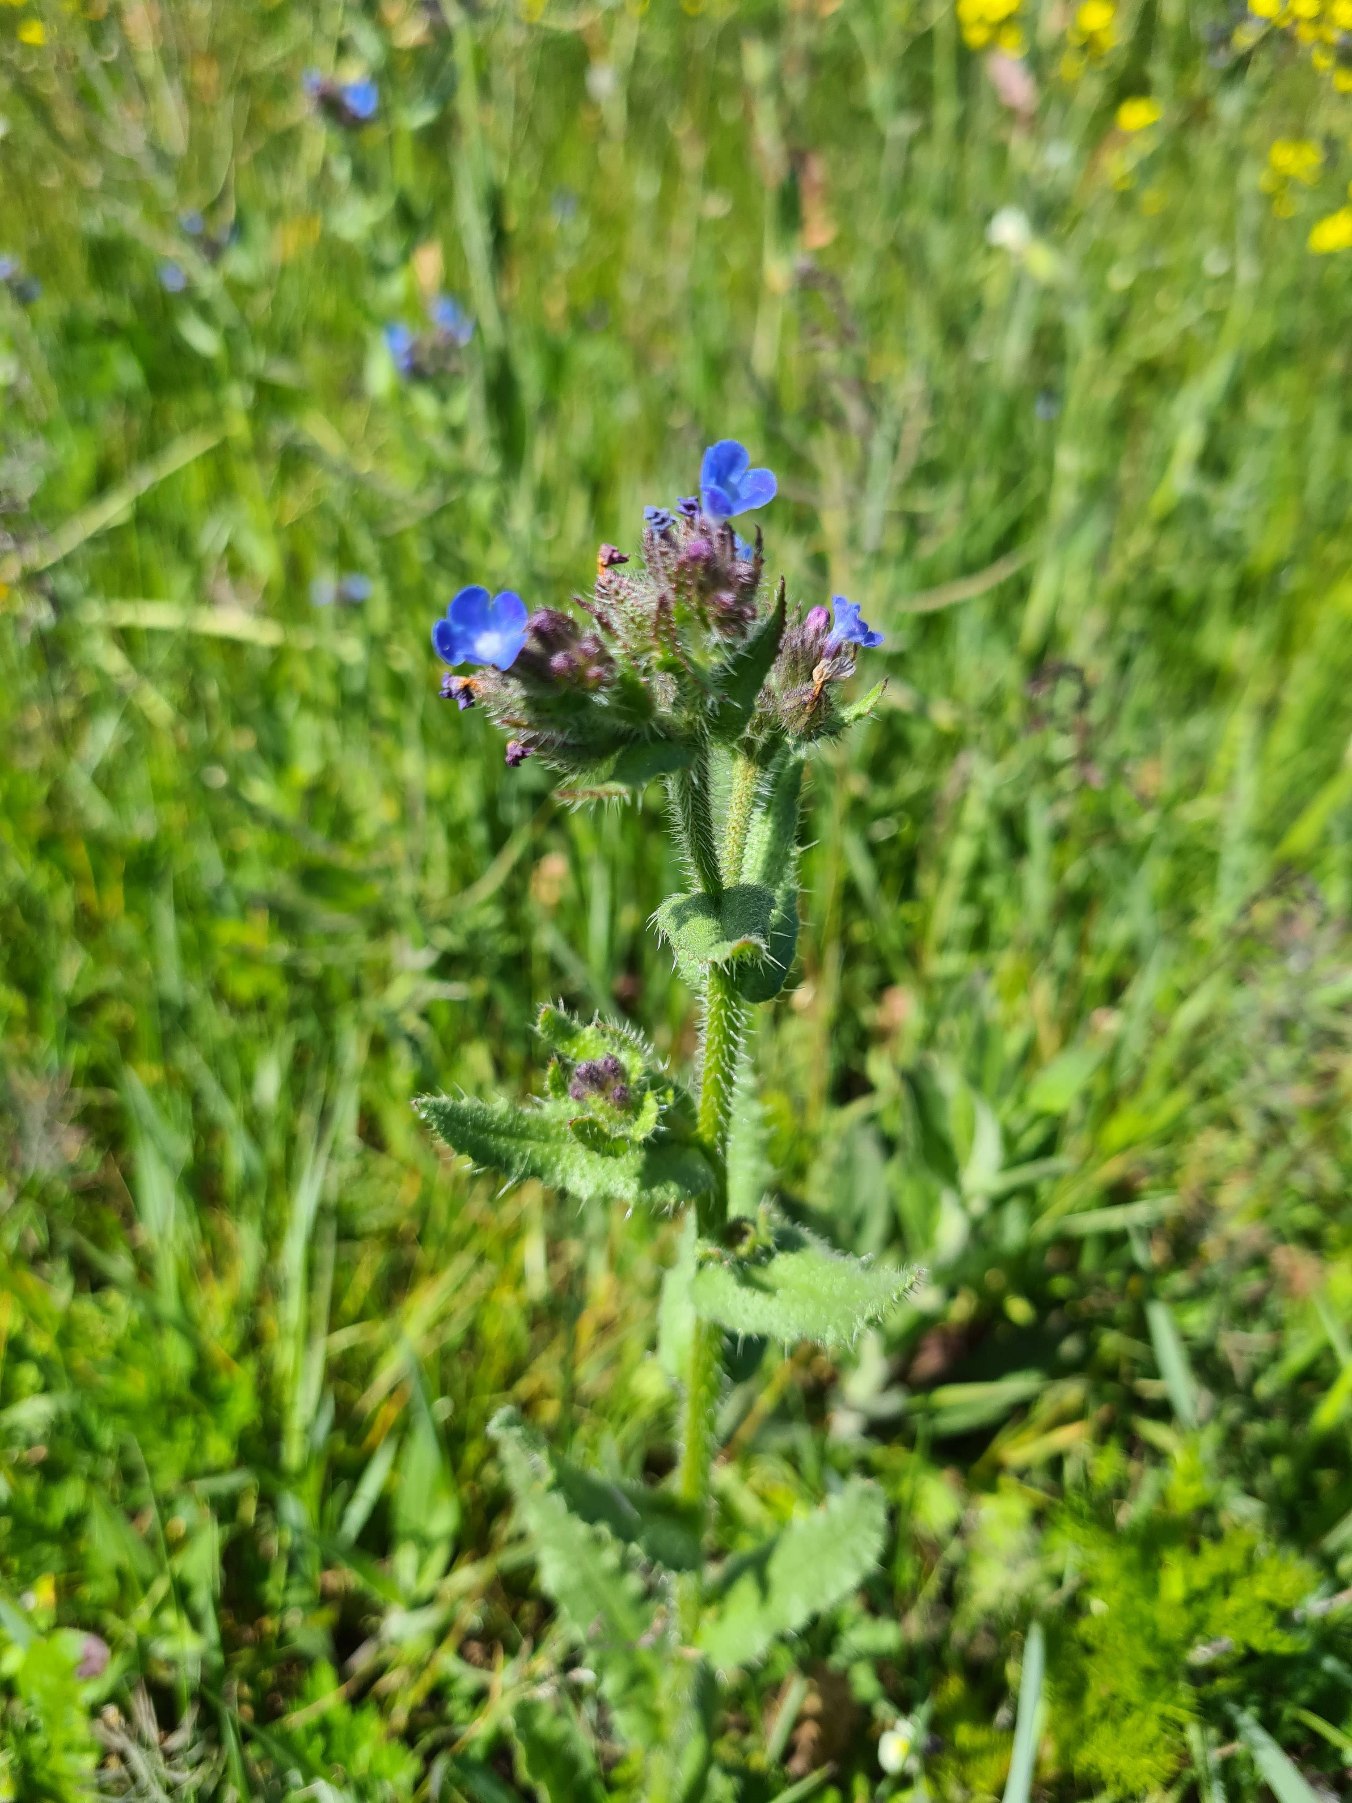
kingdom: Plantae
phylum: Tracheophyta
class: Magnoliopsida
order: Boraginales
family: Boraginaceae
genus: Lycopsis
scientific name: Lycopsis arvensis
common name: Krumhals
